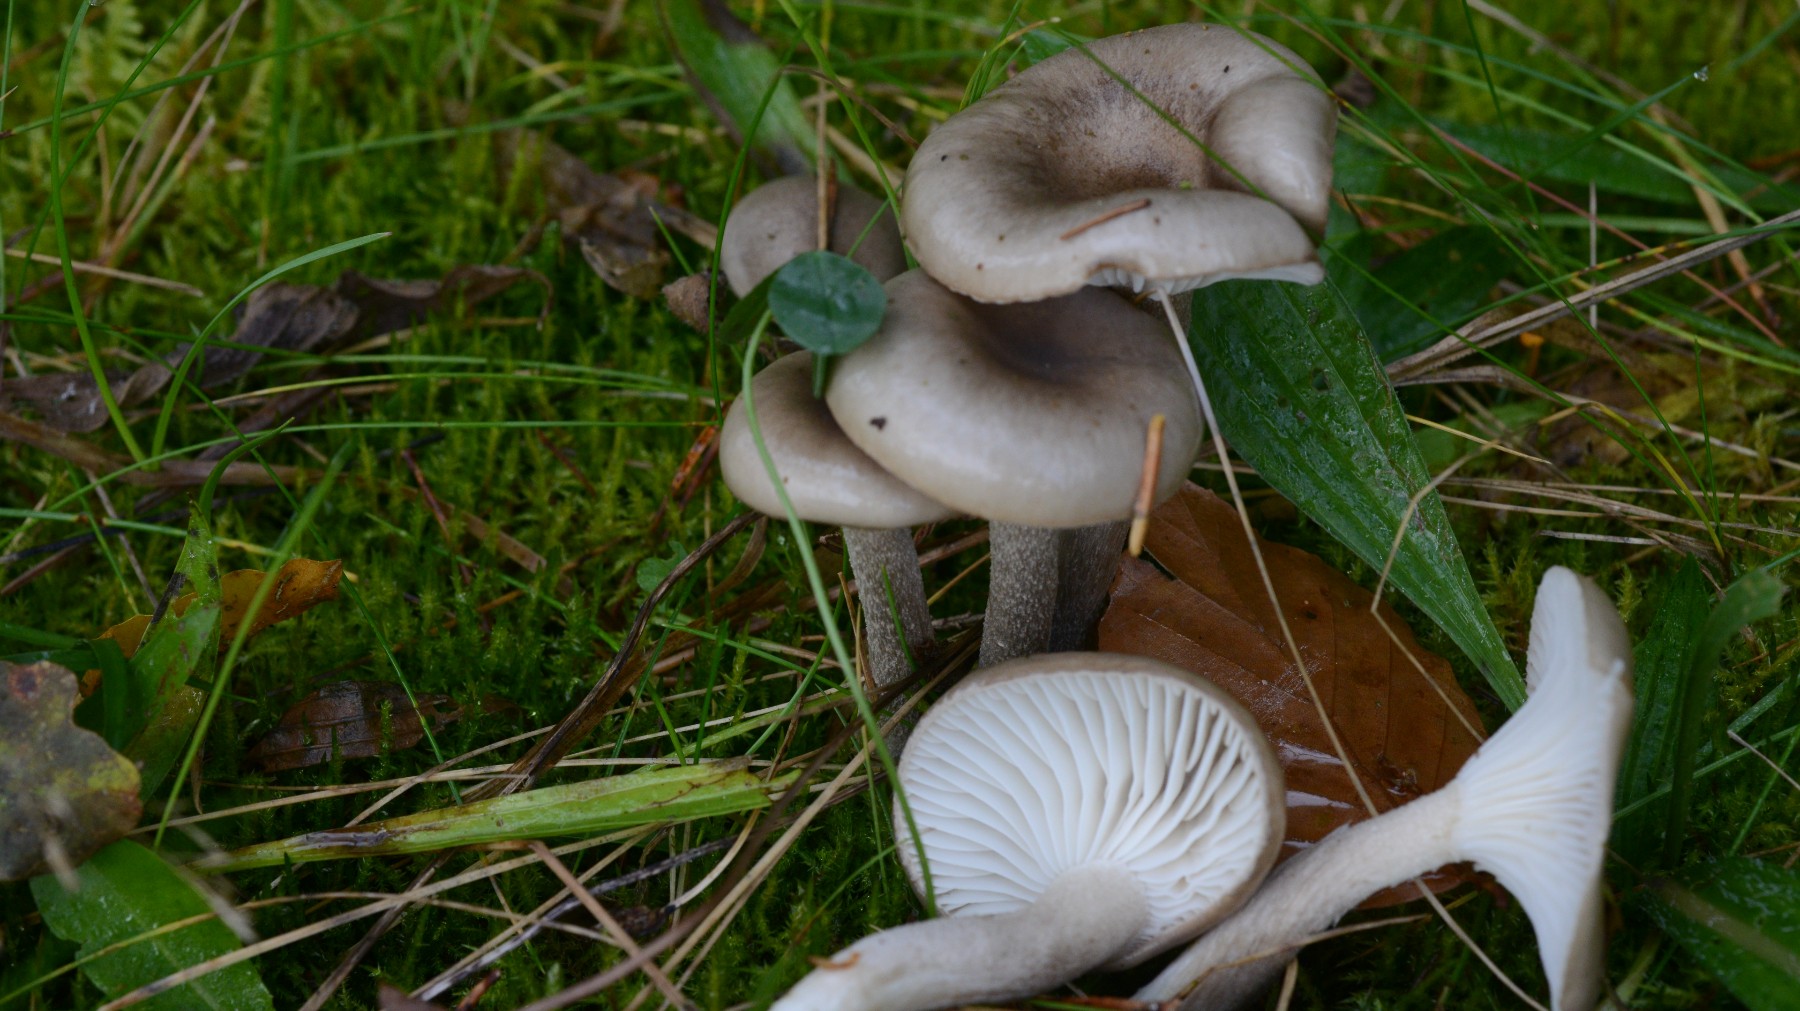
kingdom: Fungi
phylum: Basidiomycota
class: Agaricomycetes
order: Agaricales
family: Hygrophoraceae
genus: Hygrophorus
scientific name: Hygrophorus agathosmus
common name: vellugtende sneglehat
